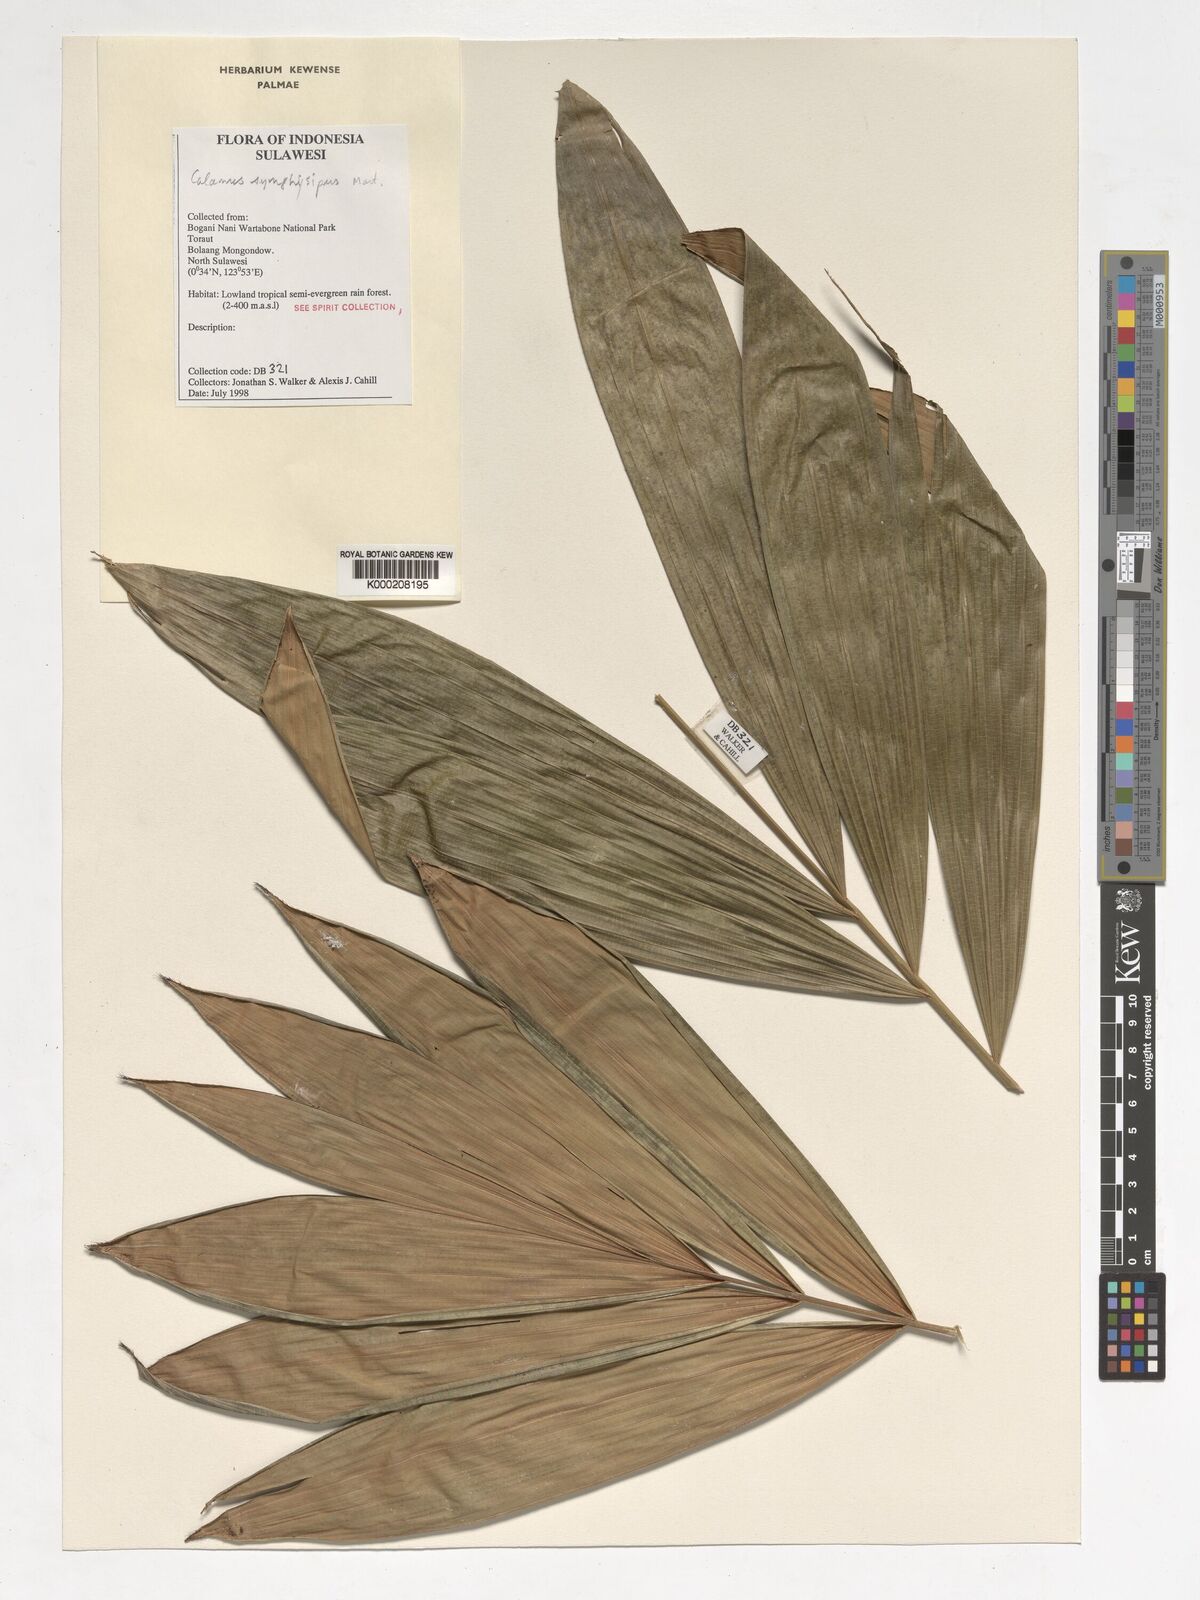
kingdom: Plantae
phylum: Tracheophyta
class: Liliopsida
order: Arecales
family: Arecaceae
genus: Calamus
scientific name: Calamus
